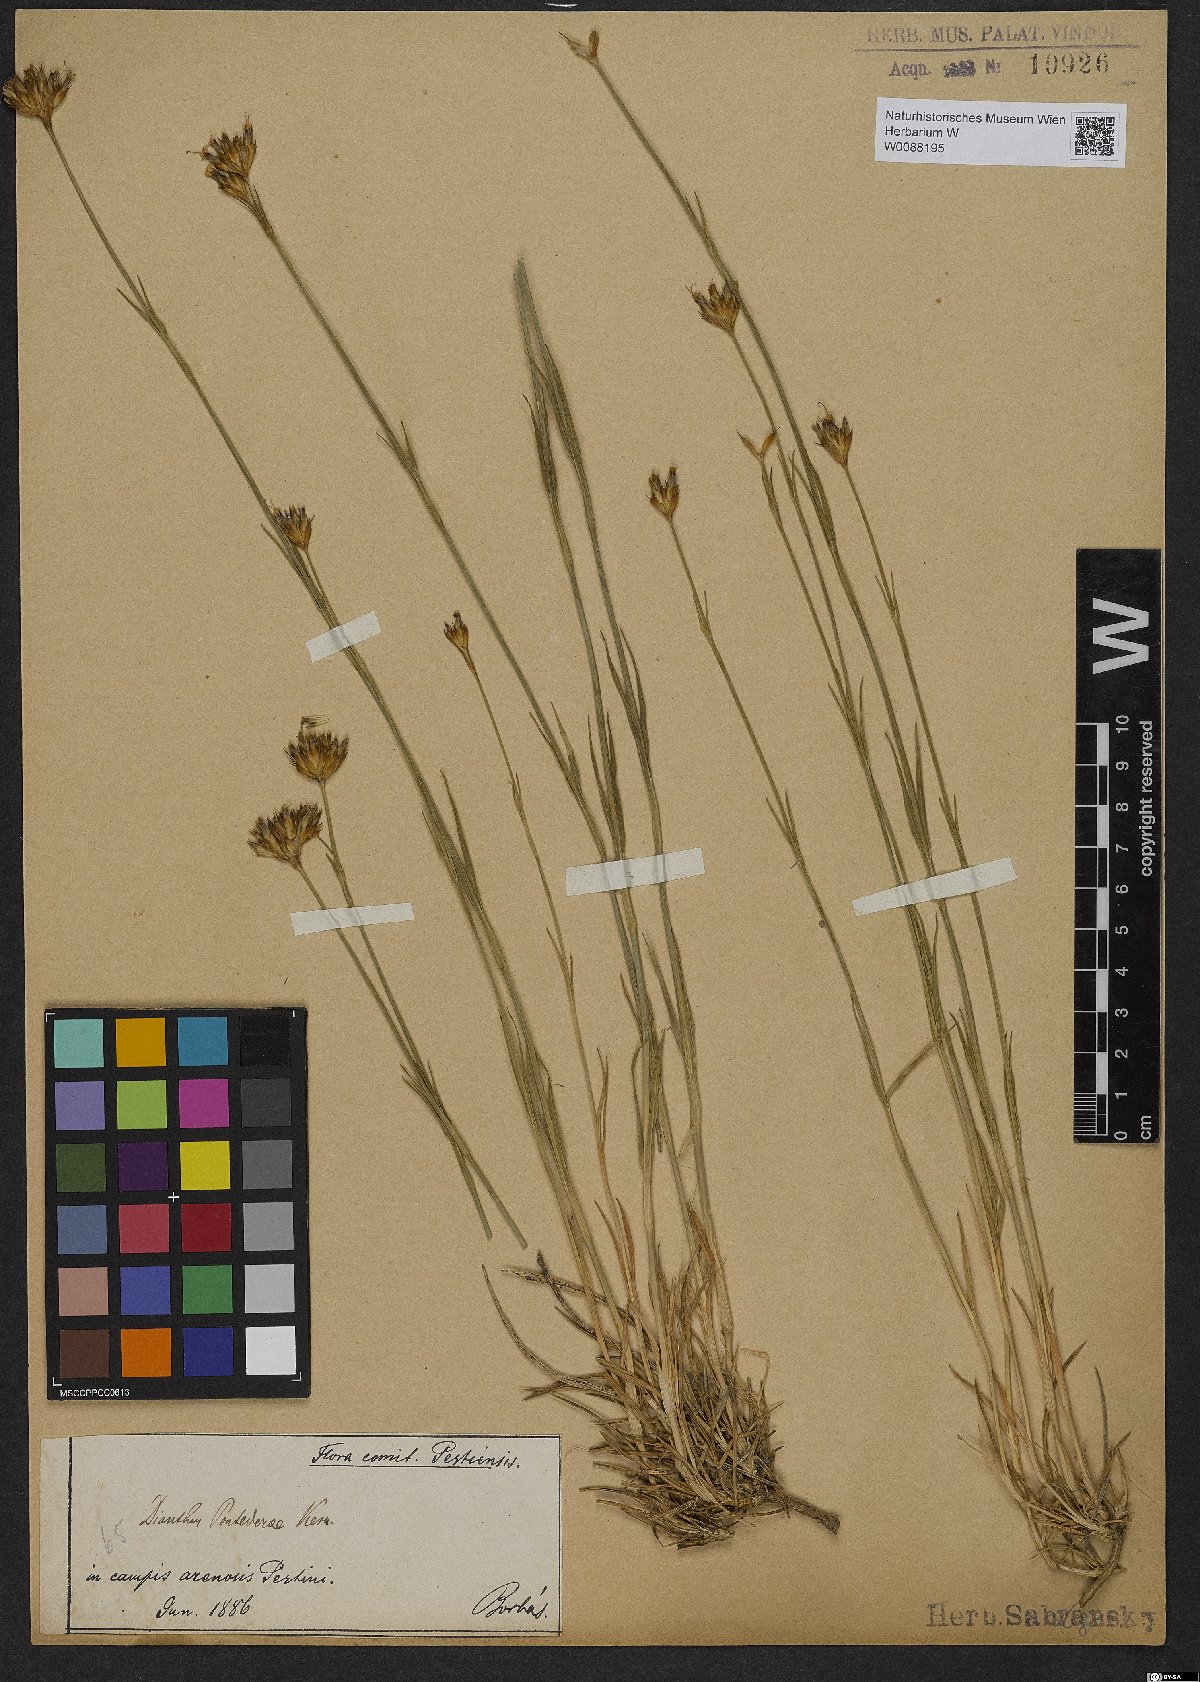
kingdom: Plantae
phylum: Tracheophyta
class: Magnoliopsida
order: Caryophyllales
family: Caryophyllaceae
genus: Dianthus
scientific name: Dianthus pontederae
